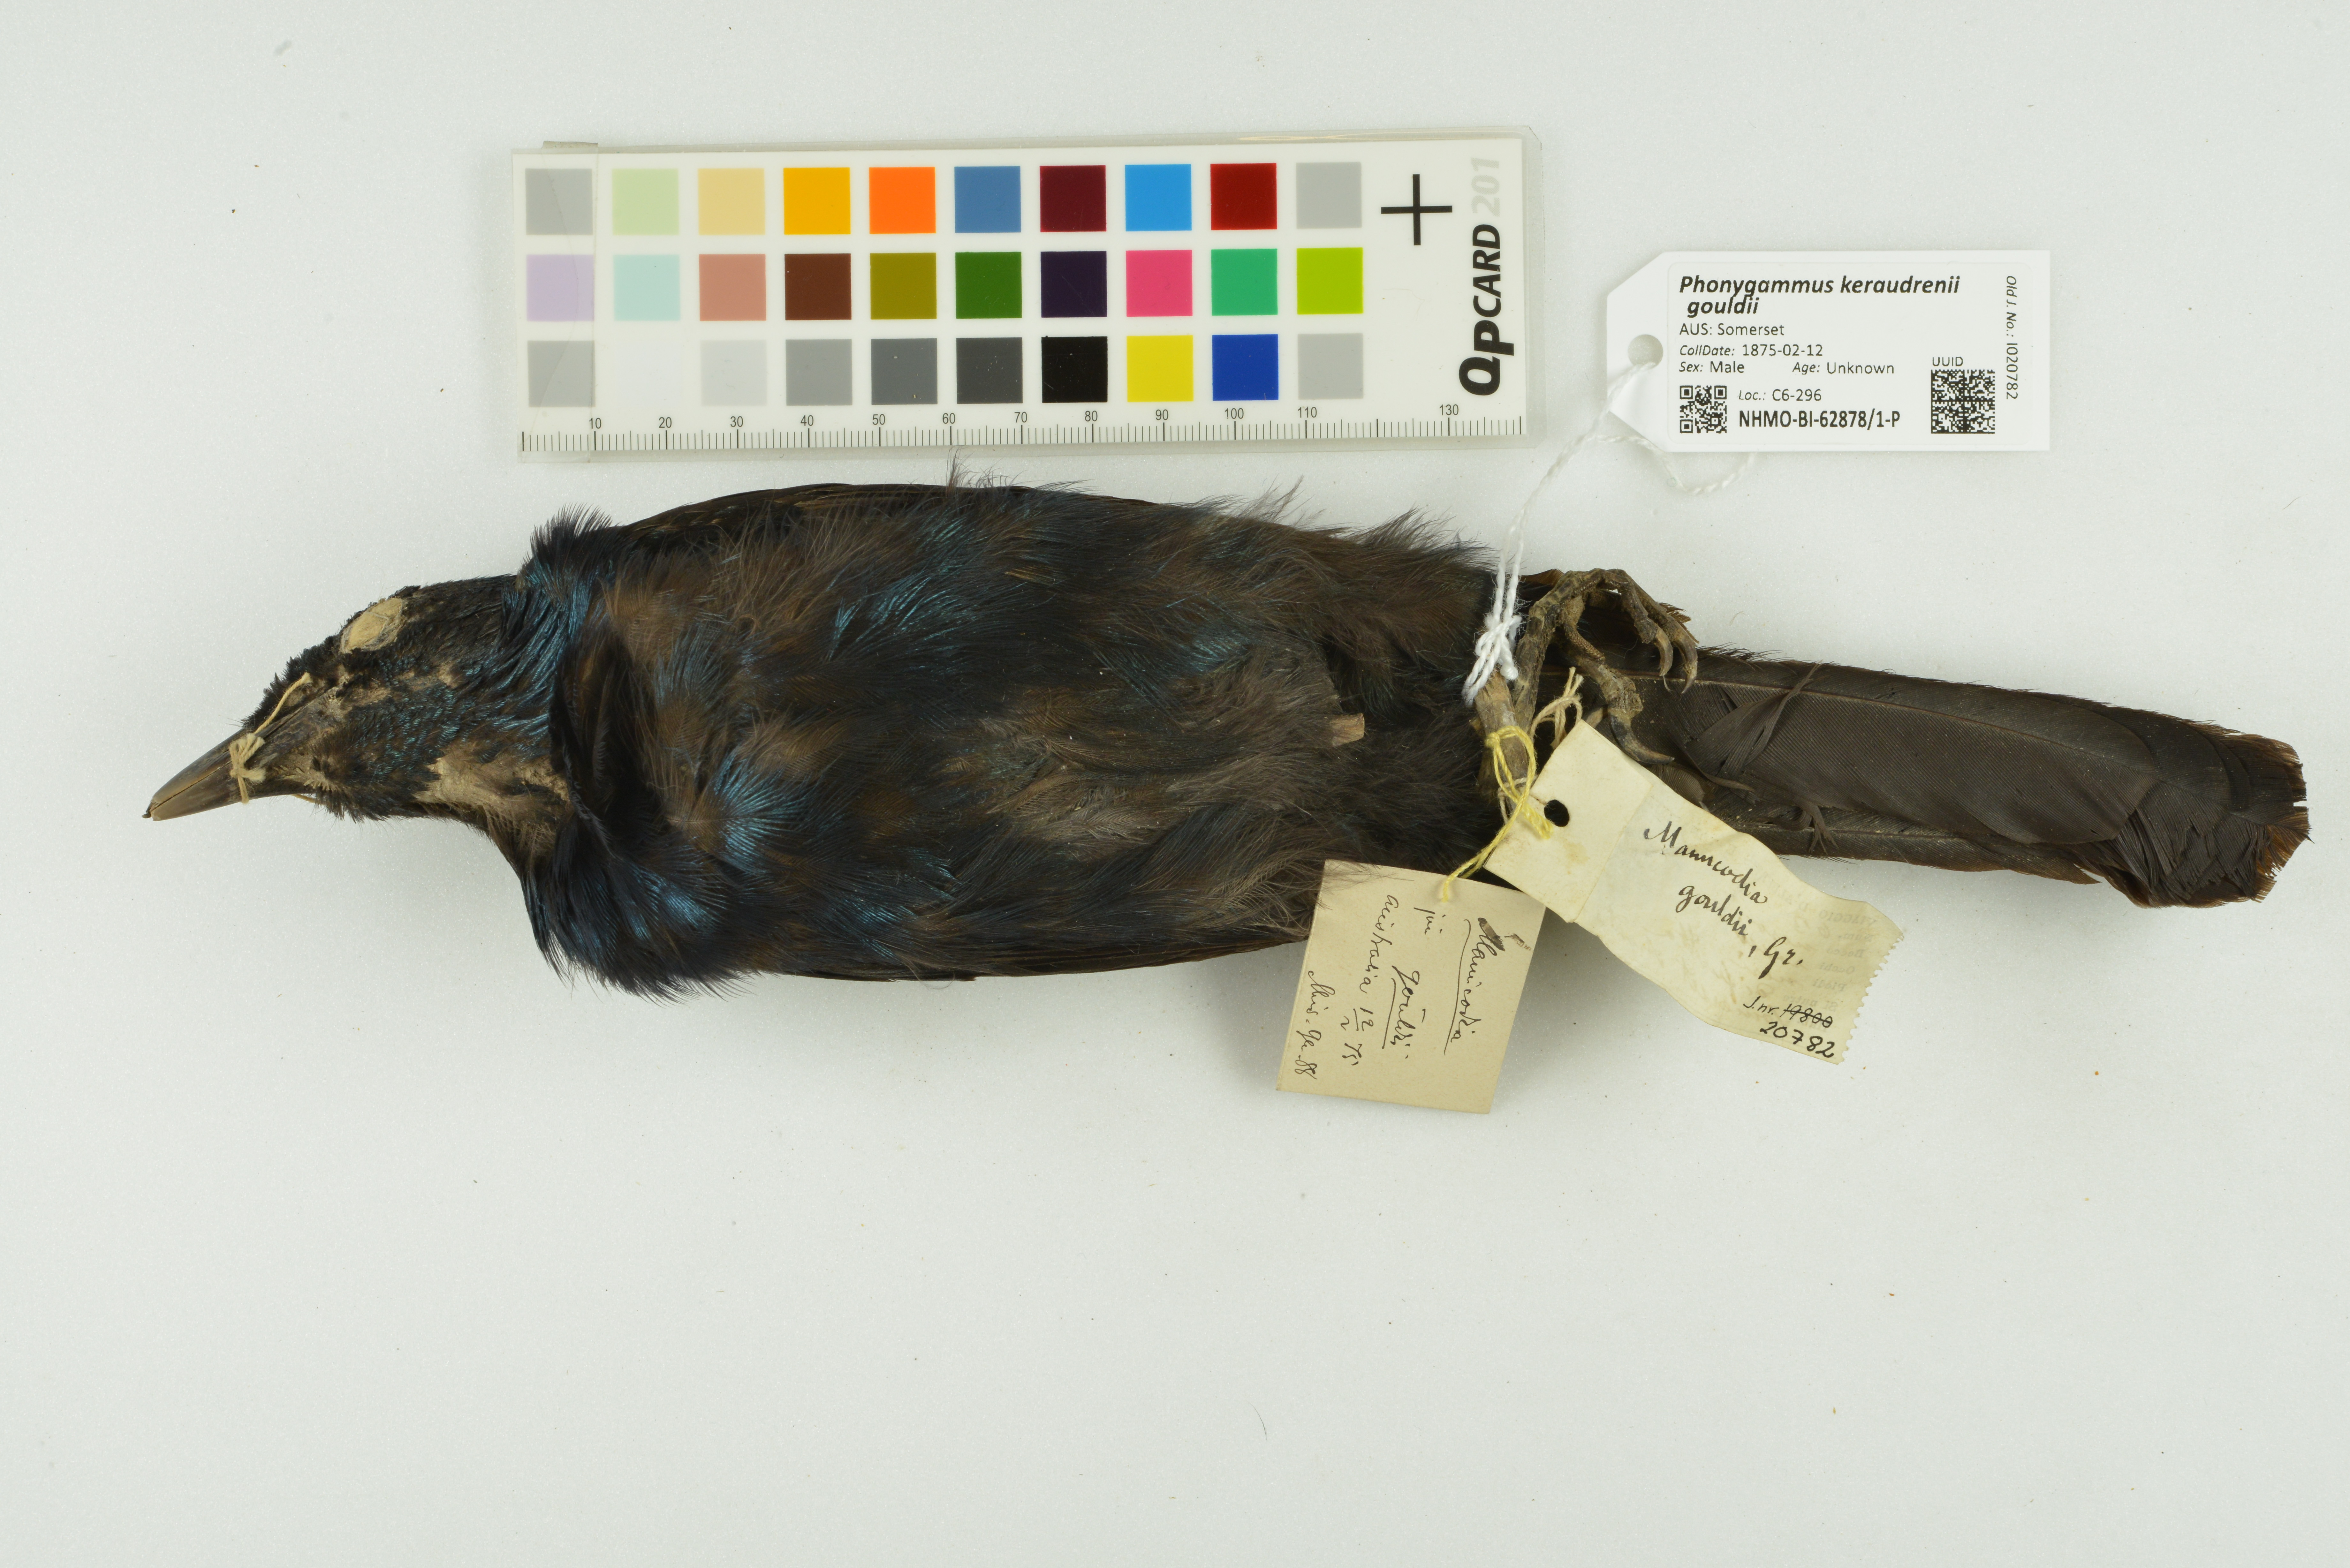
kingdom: Animalia
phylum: Chordata
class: Aves
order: Passeriformes
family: Paradisaeidae
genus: Phonygammus
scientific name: Phonygammus keraudrenii
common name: Trumpet manucode
